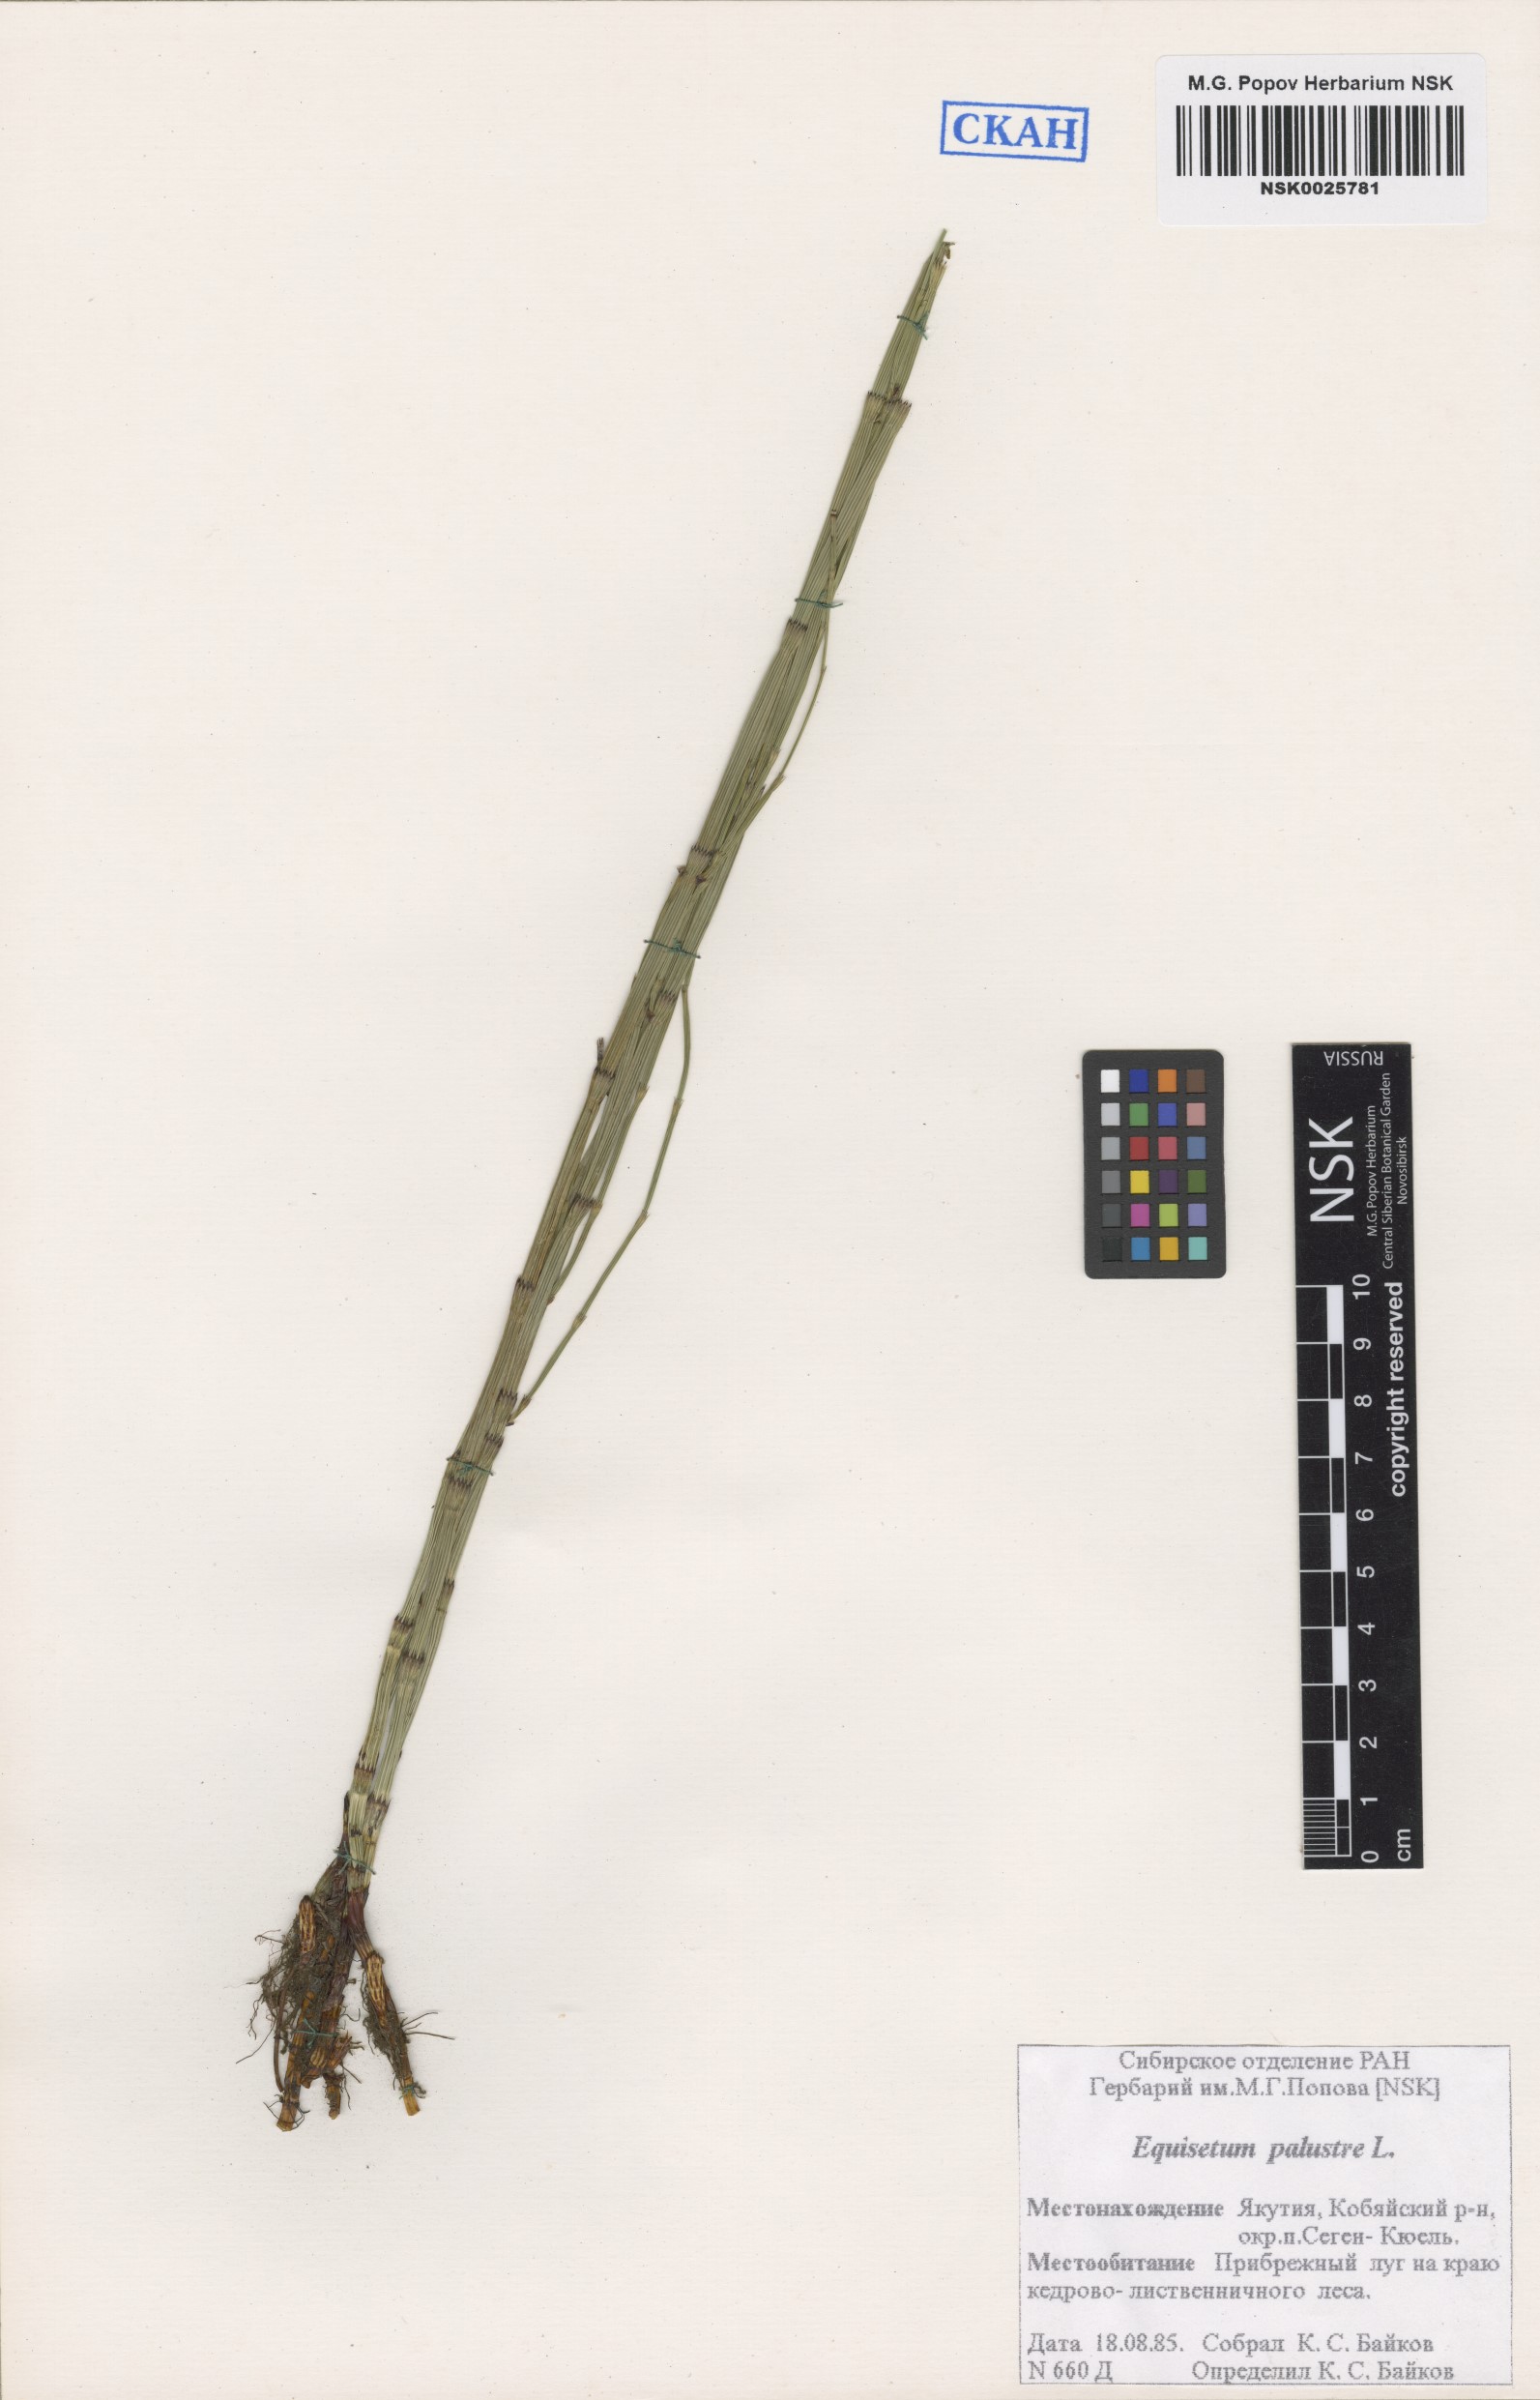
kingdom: Plantae
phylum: Tracheophyta
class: Polypodiopsida
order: Equisetales
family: Equisetaceae
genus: Equisetum
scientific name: Equisetum palustre
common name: Marsh horsetail
